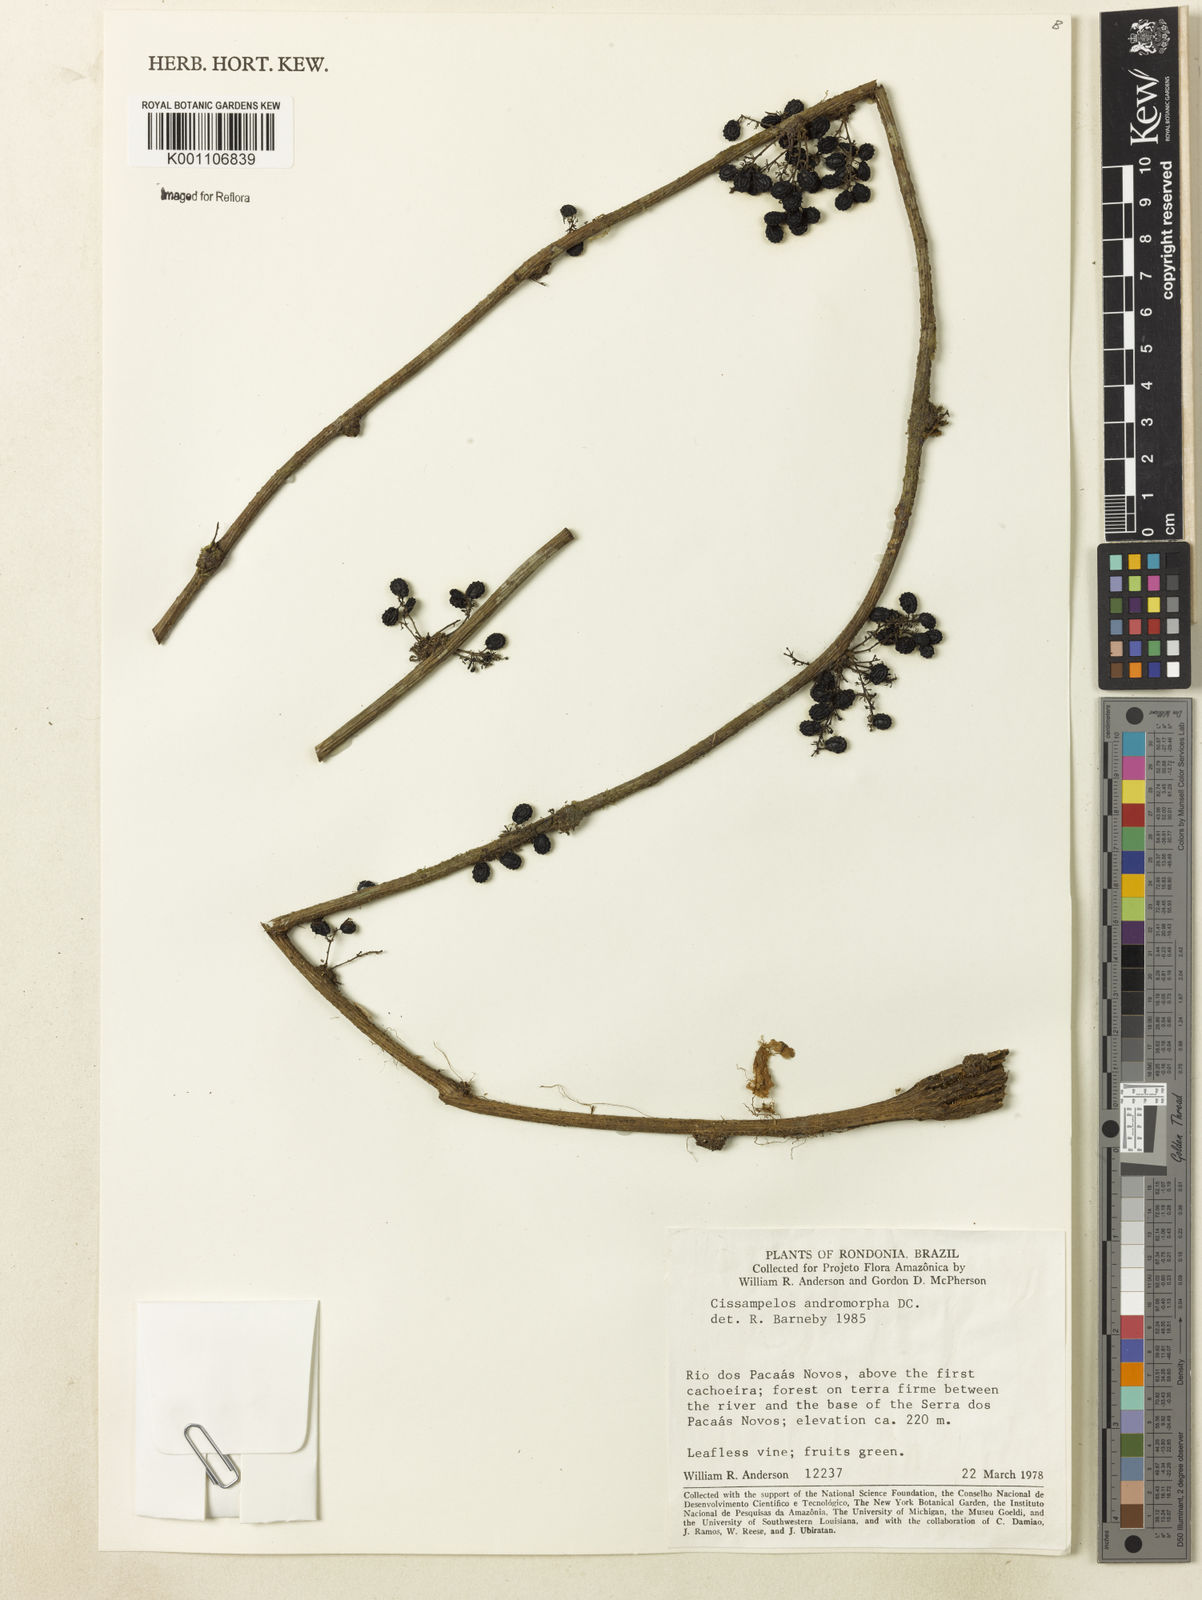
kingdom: Plantae
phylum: Tracheophyta
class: Magnoliopsida
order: Ranunculales
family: Menispermaceae
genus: Cissampelos
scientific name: Cissampelos andromorpha
